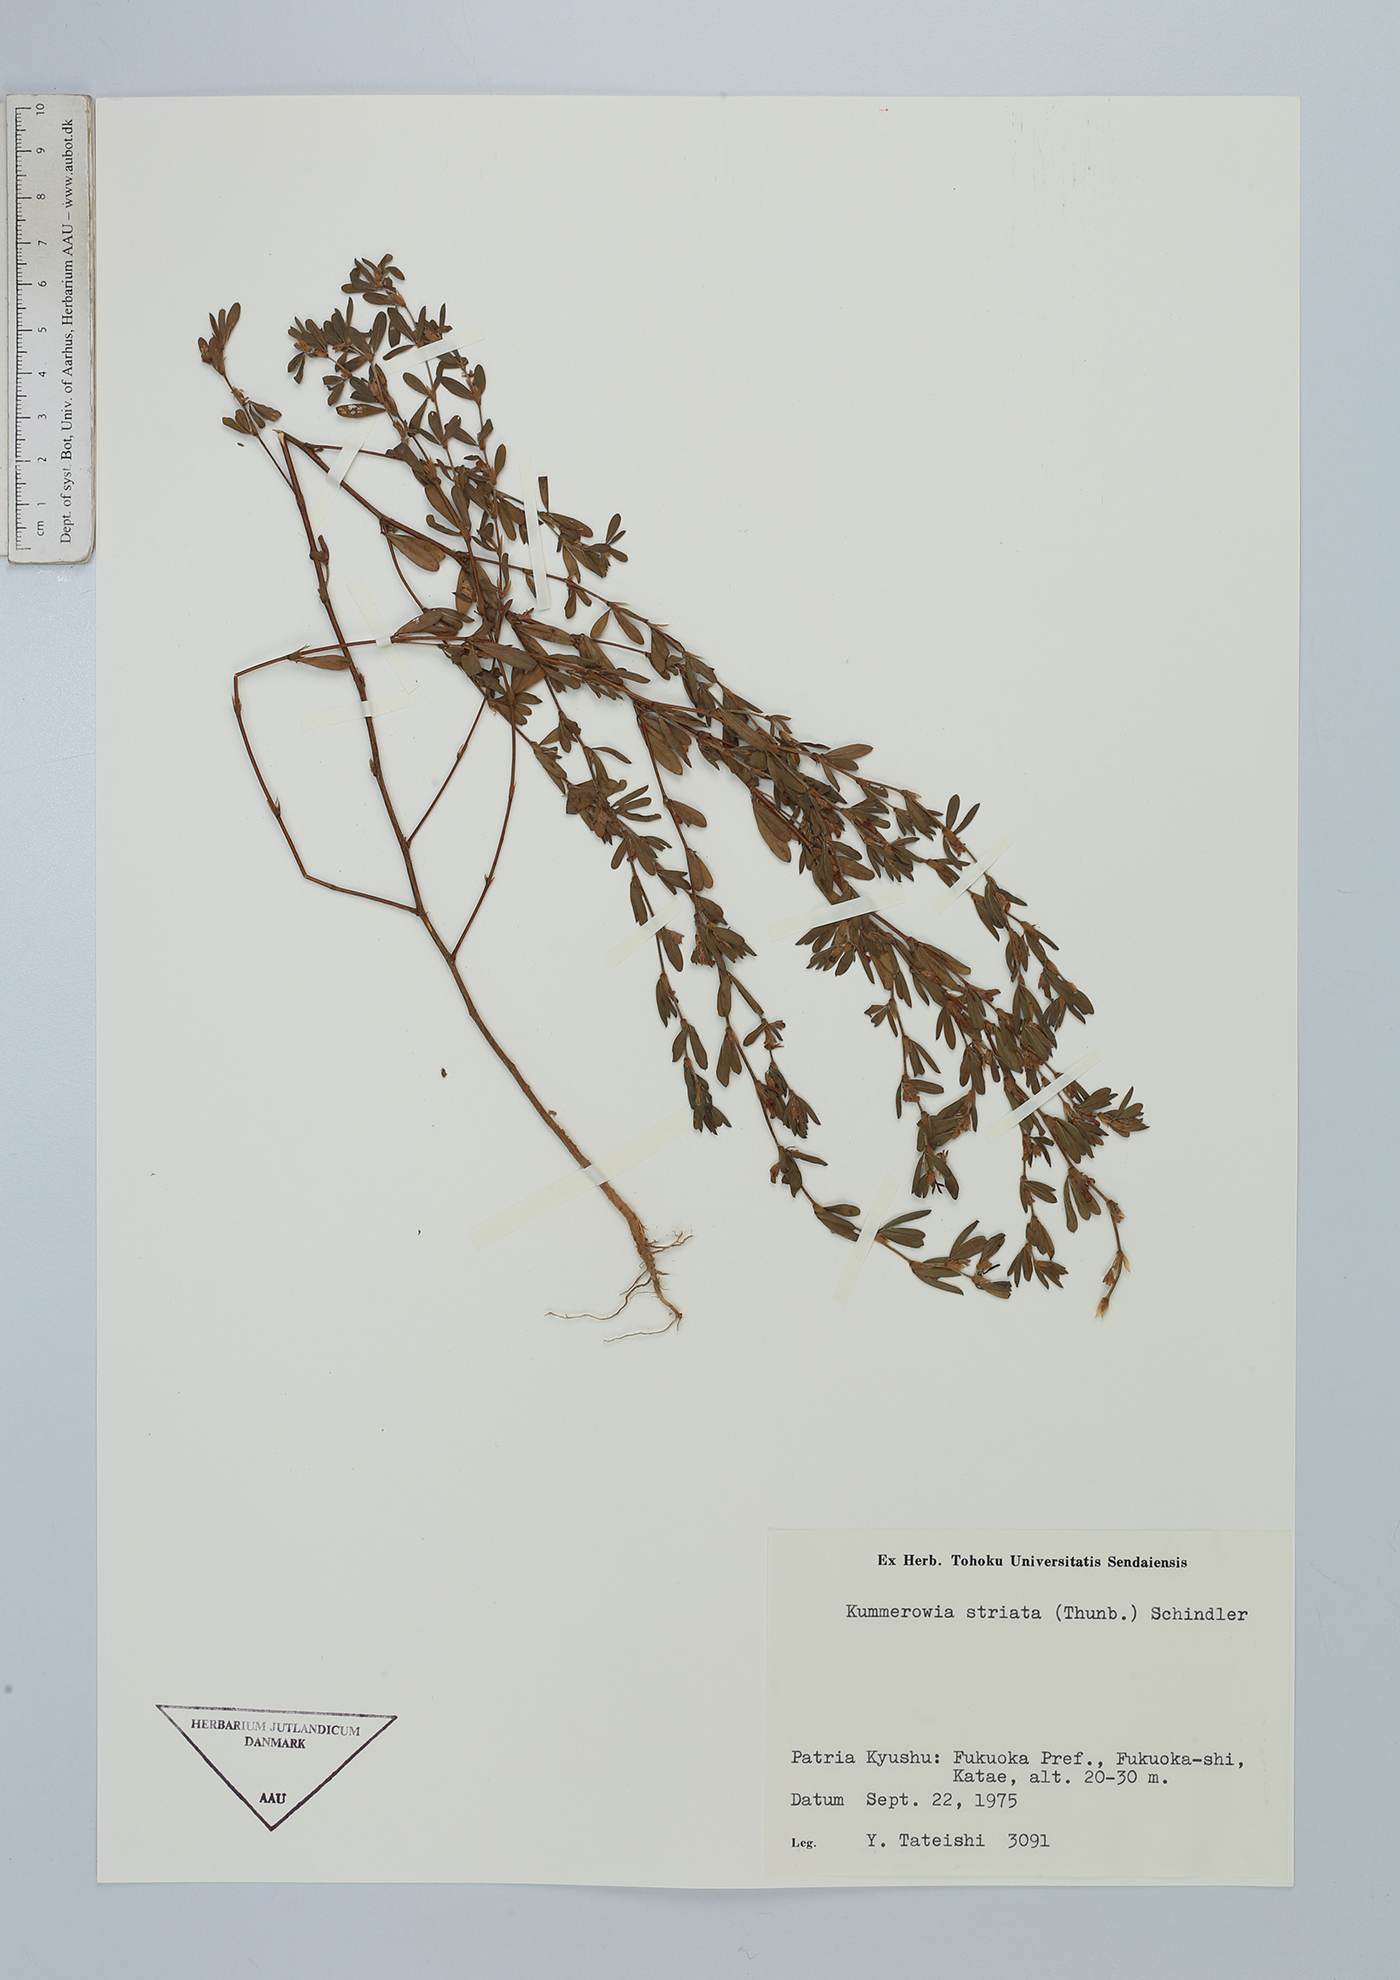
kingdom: Plantae
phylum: Tracheophyta
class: Magnoliopsida
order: Fabales
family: Fabaceae
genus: Kummerowia
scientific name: Kummerowia striata
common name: Japanese clover
